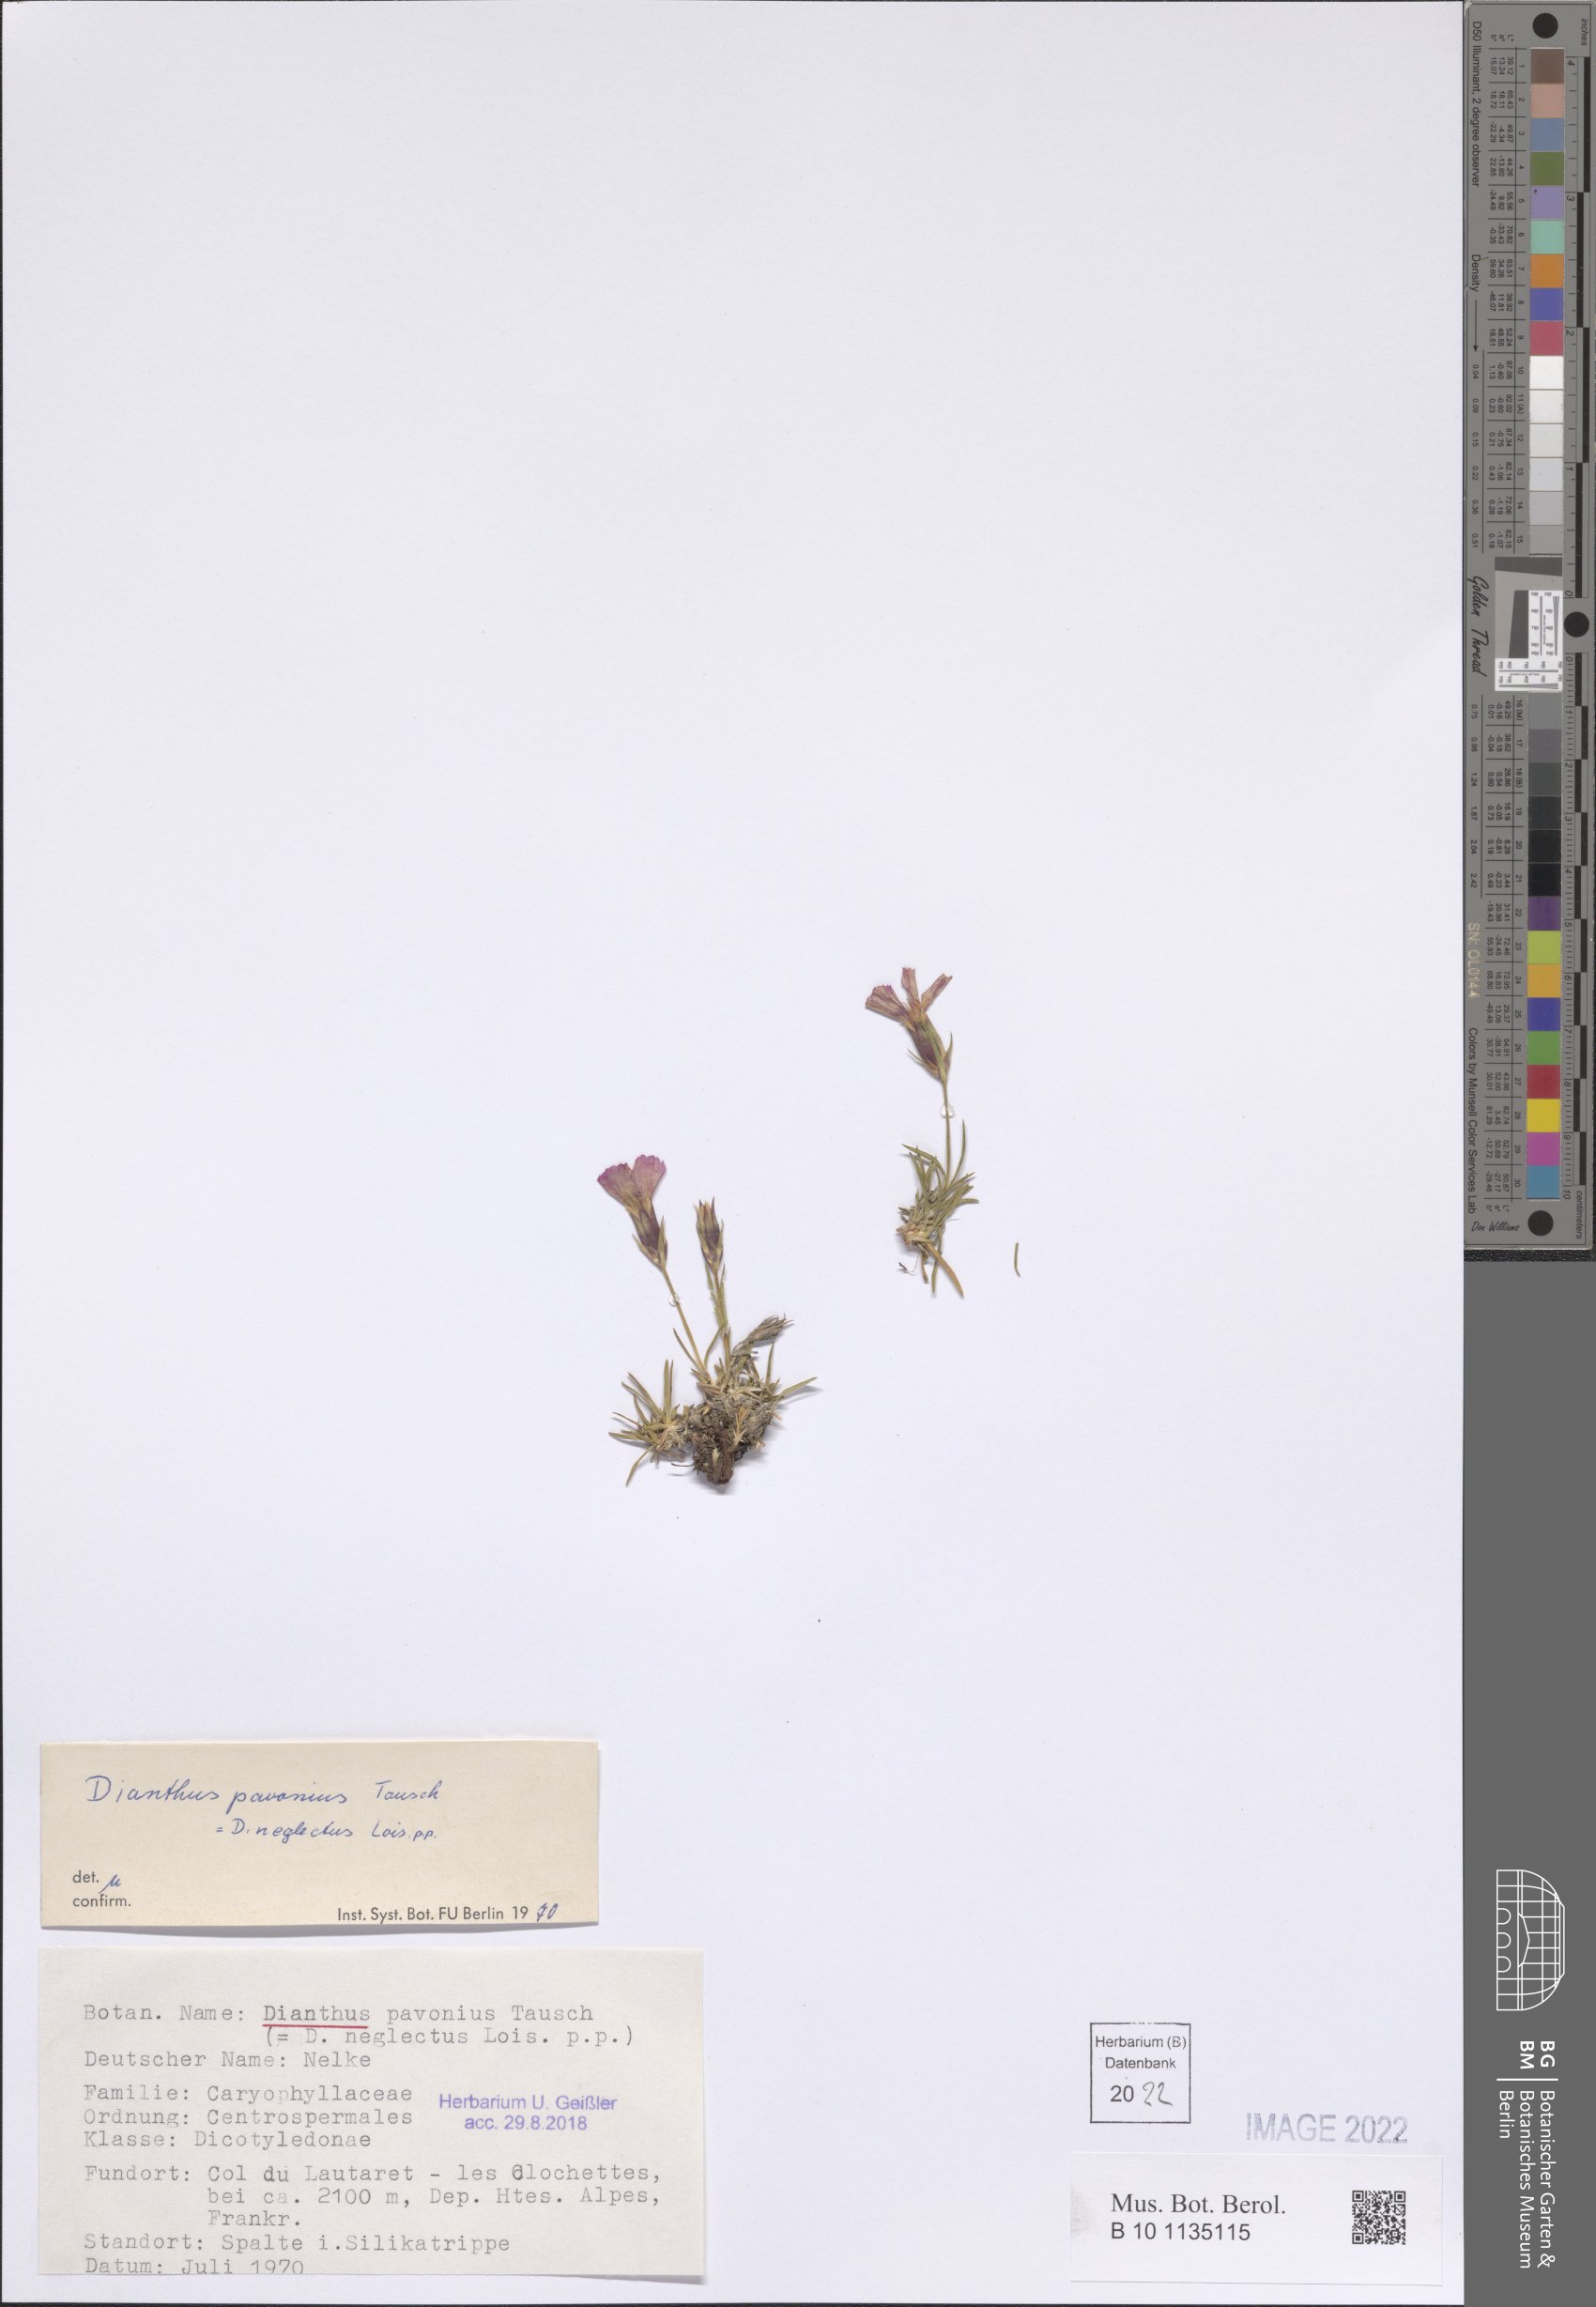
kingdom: Plantae
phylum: Tracheophyta
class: Magnoliopsida
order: Caryophyllales
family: Caryophyllaceae
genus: Dianthus
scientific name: Dianthus pavonius
